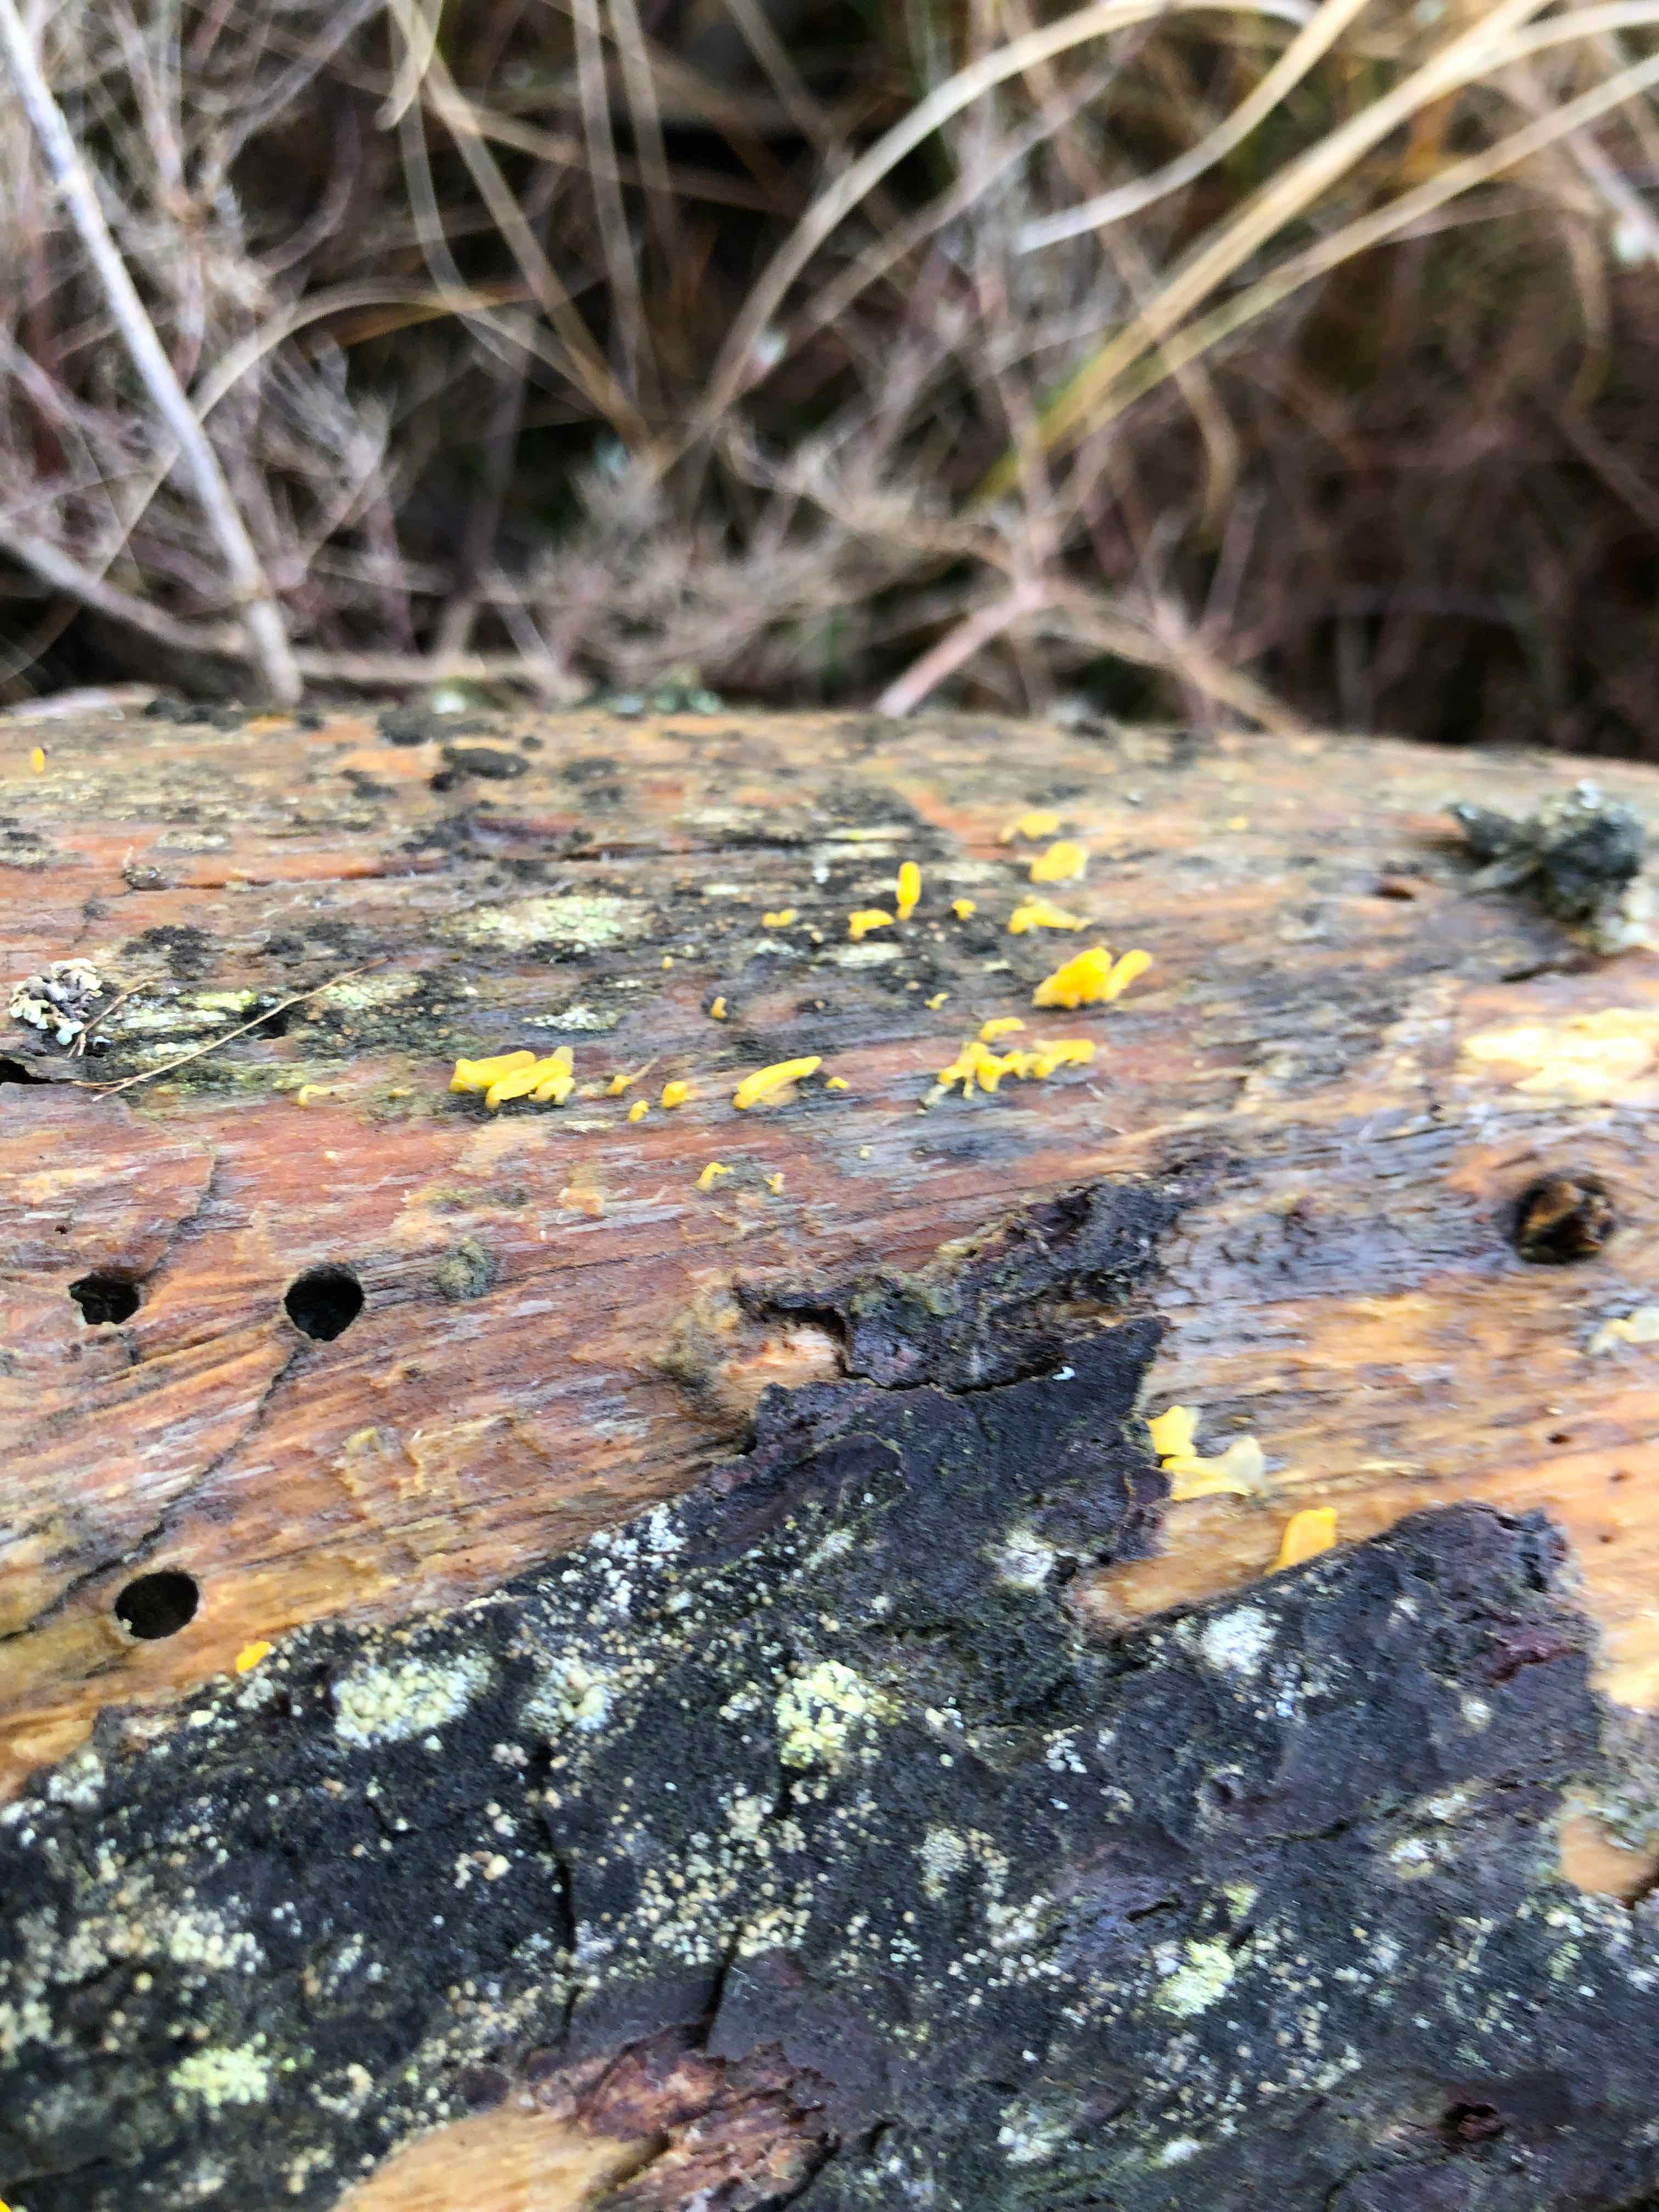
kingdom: Fungi
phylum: Basidiomycota
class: Dacrymycetes
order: Dacrymycetales
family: Dacrymycetaceae
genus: Calocera
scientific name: Calocera furcata
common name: fyrre-guldgaffel
